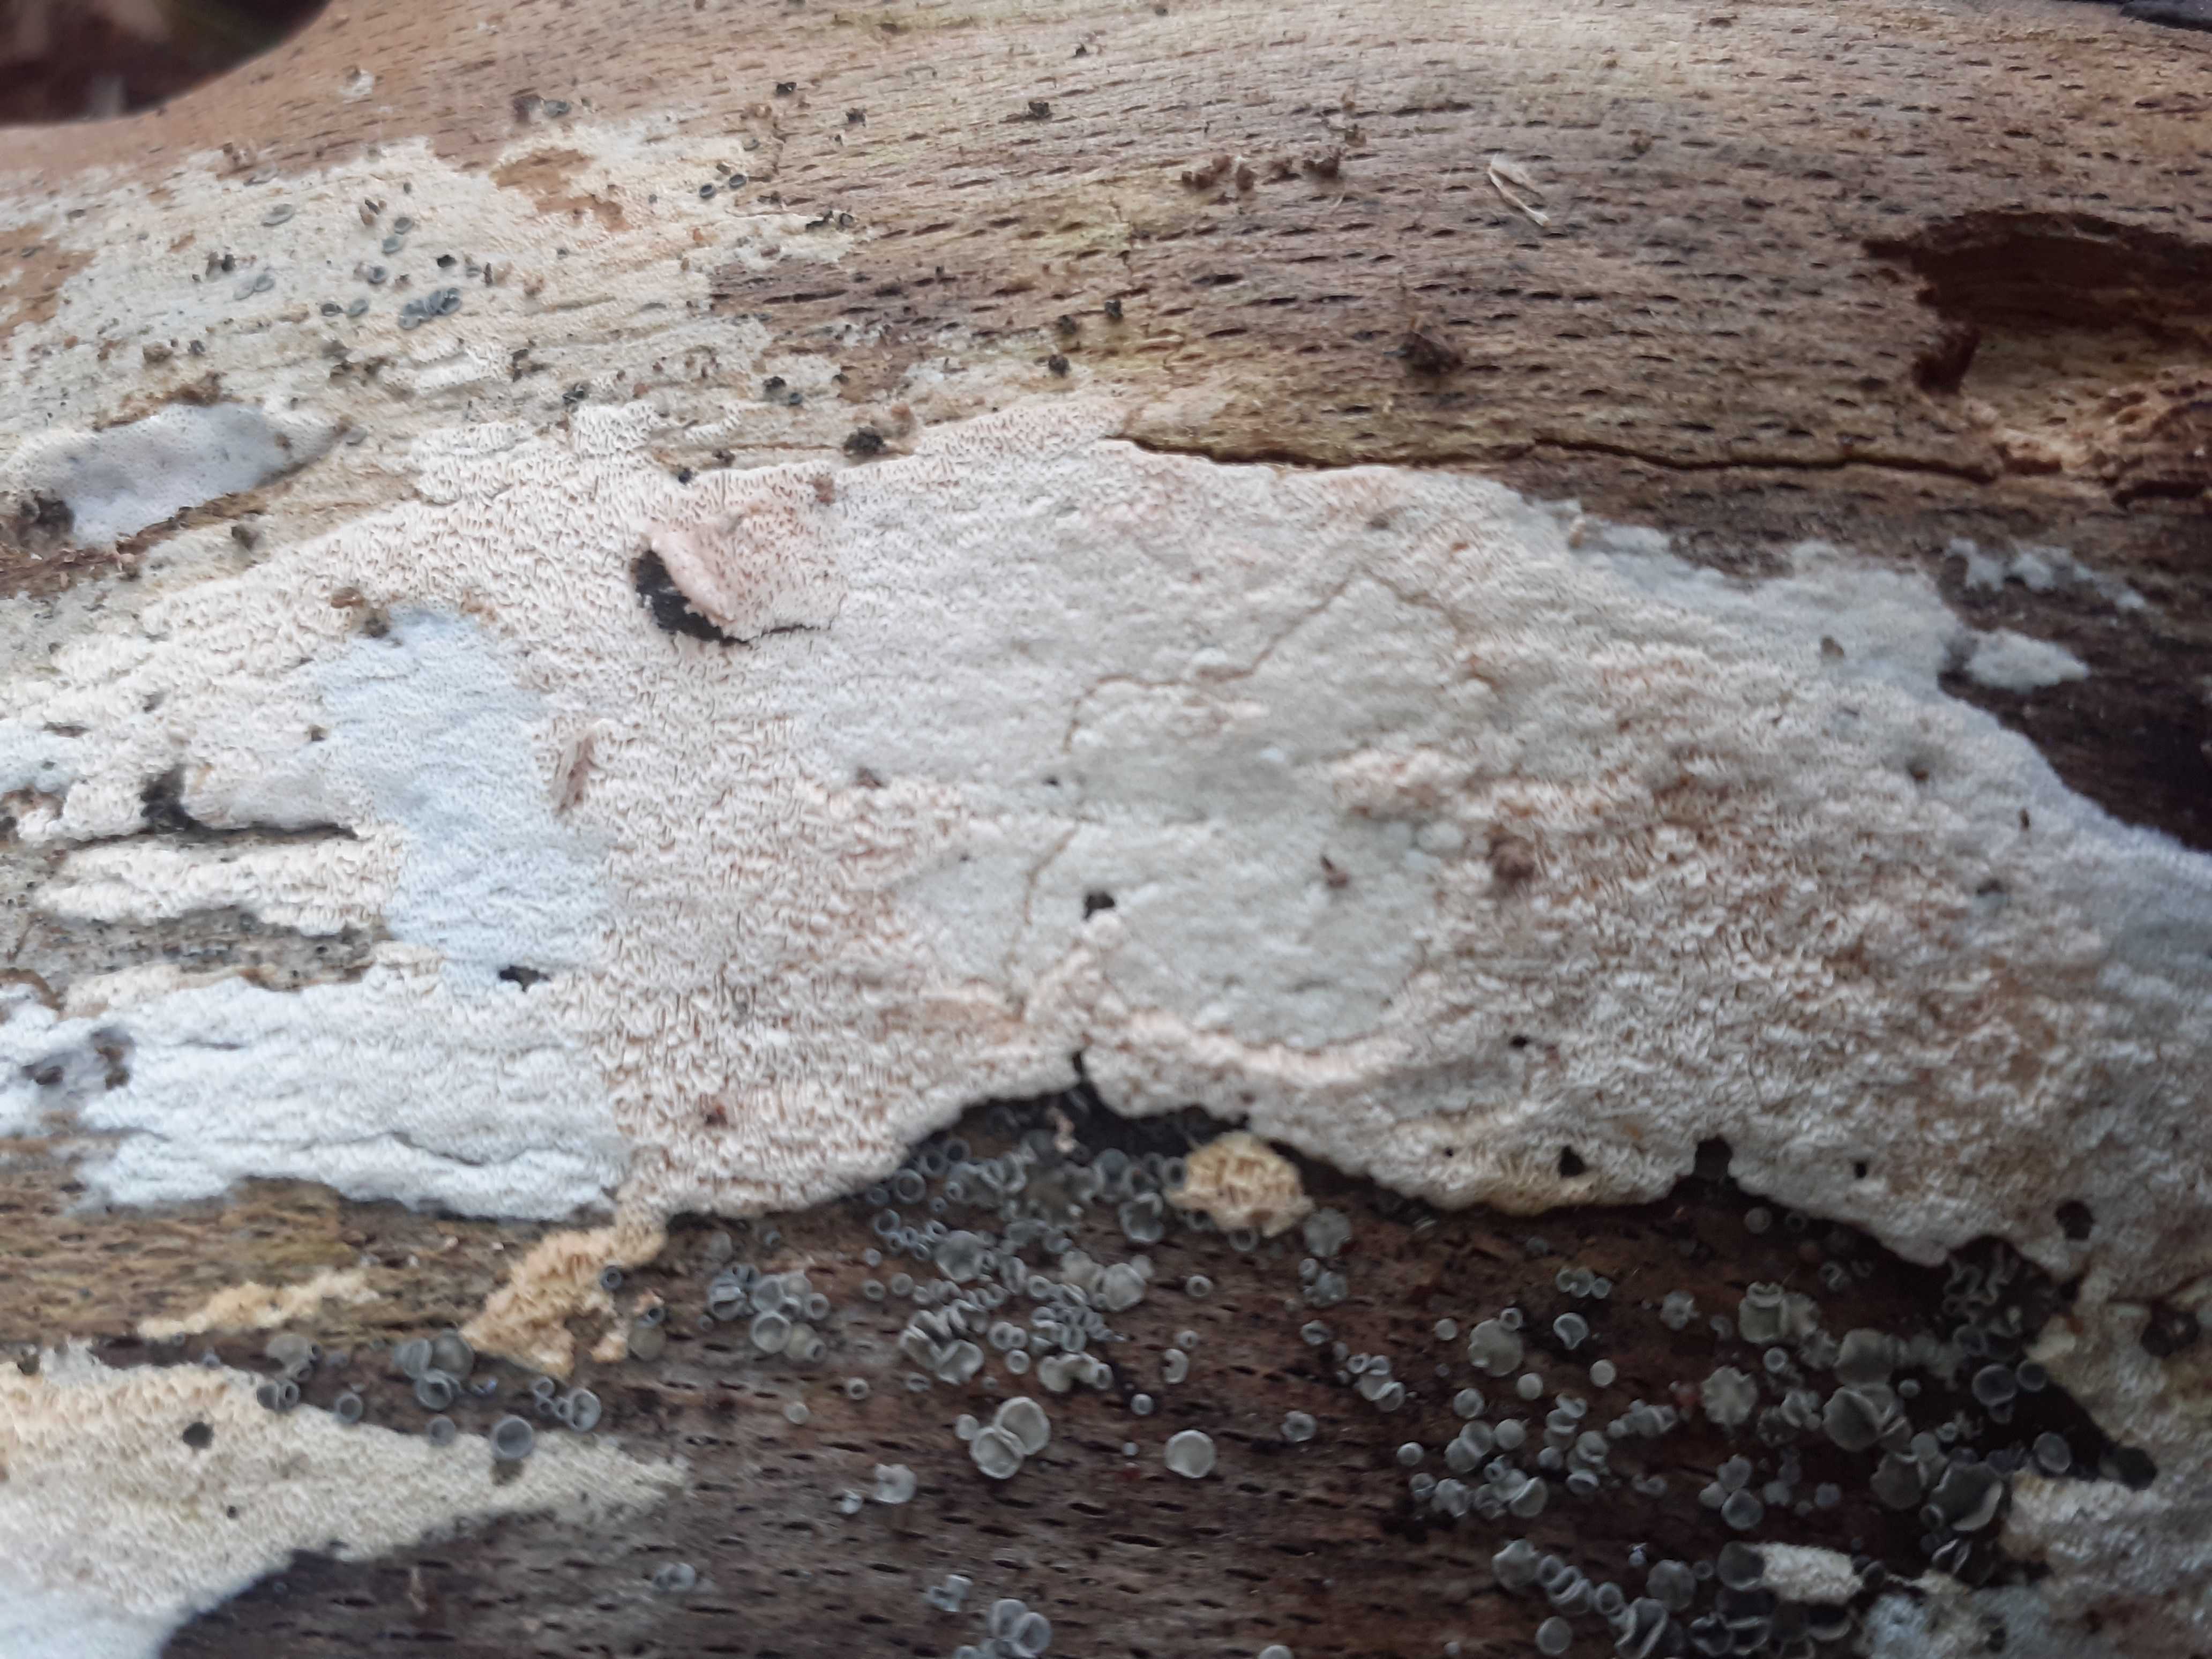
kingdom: Fungi
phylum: Basidiomycota
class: Agaricomycetes
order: Polyporales
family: Irpicaceae
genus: Ceriporia
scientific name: Ceriporia viridans
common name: foranderlig voksporesvamp
